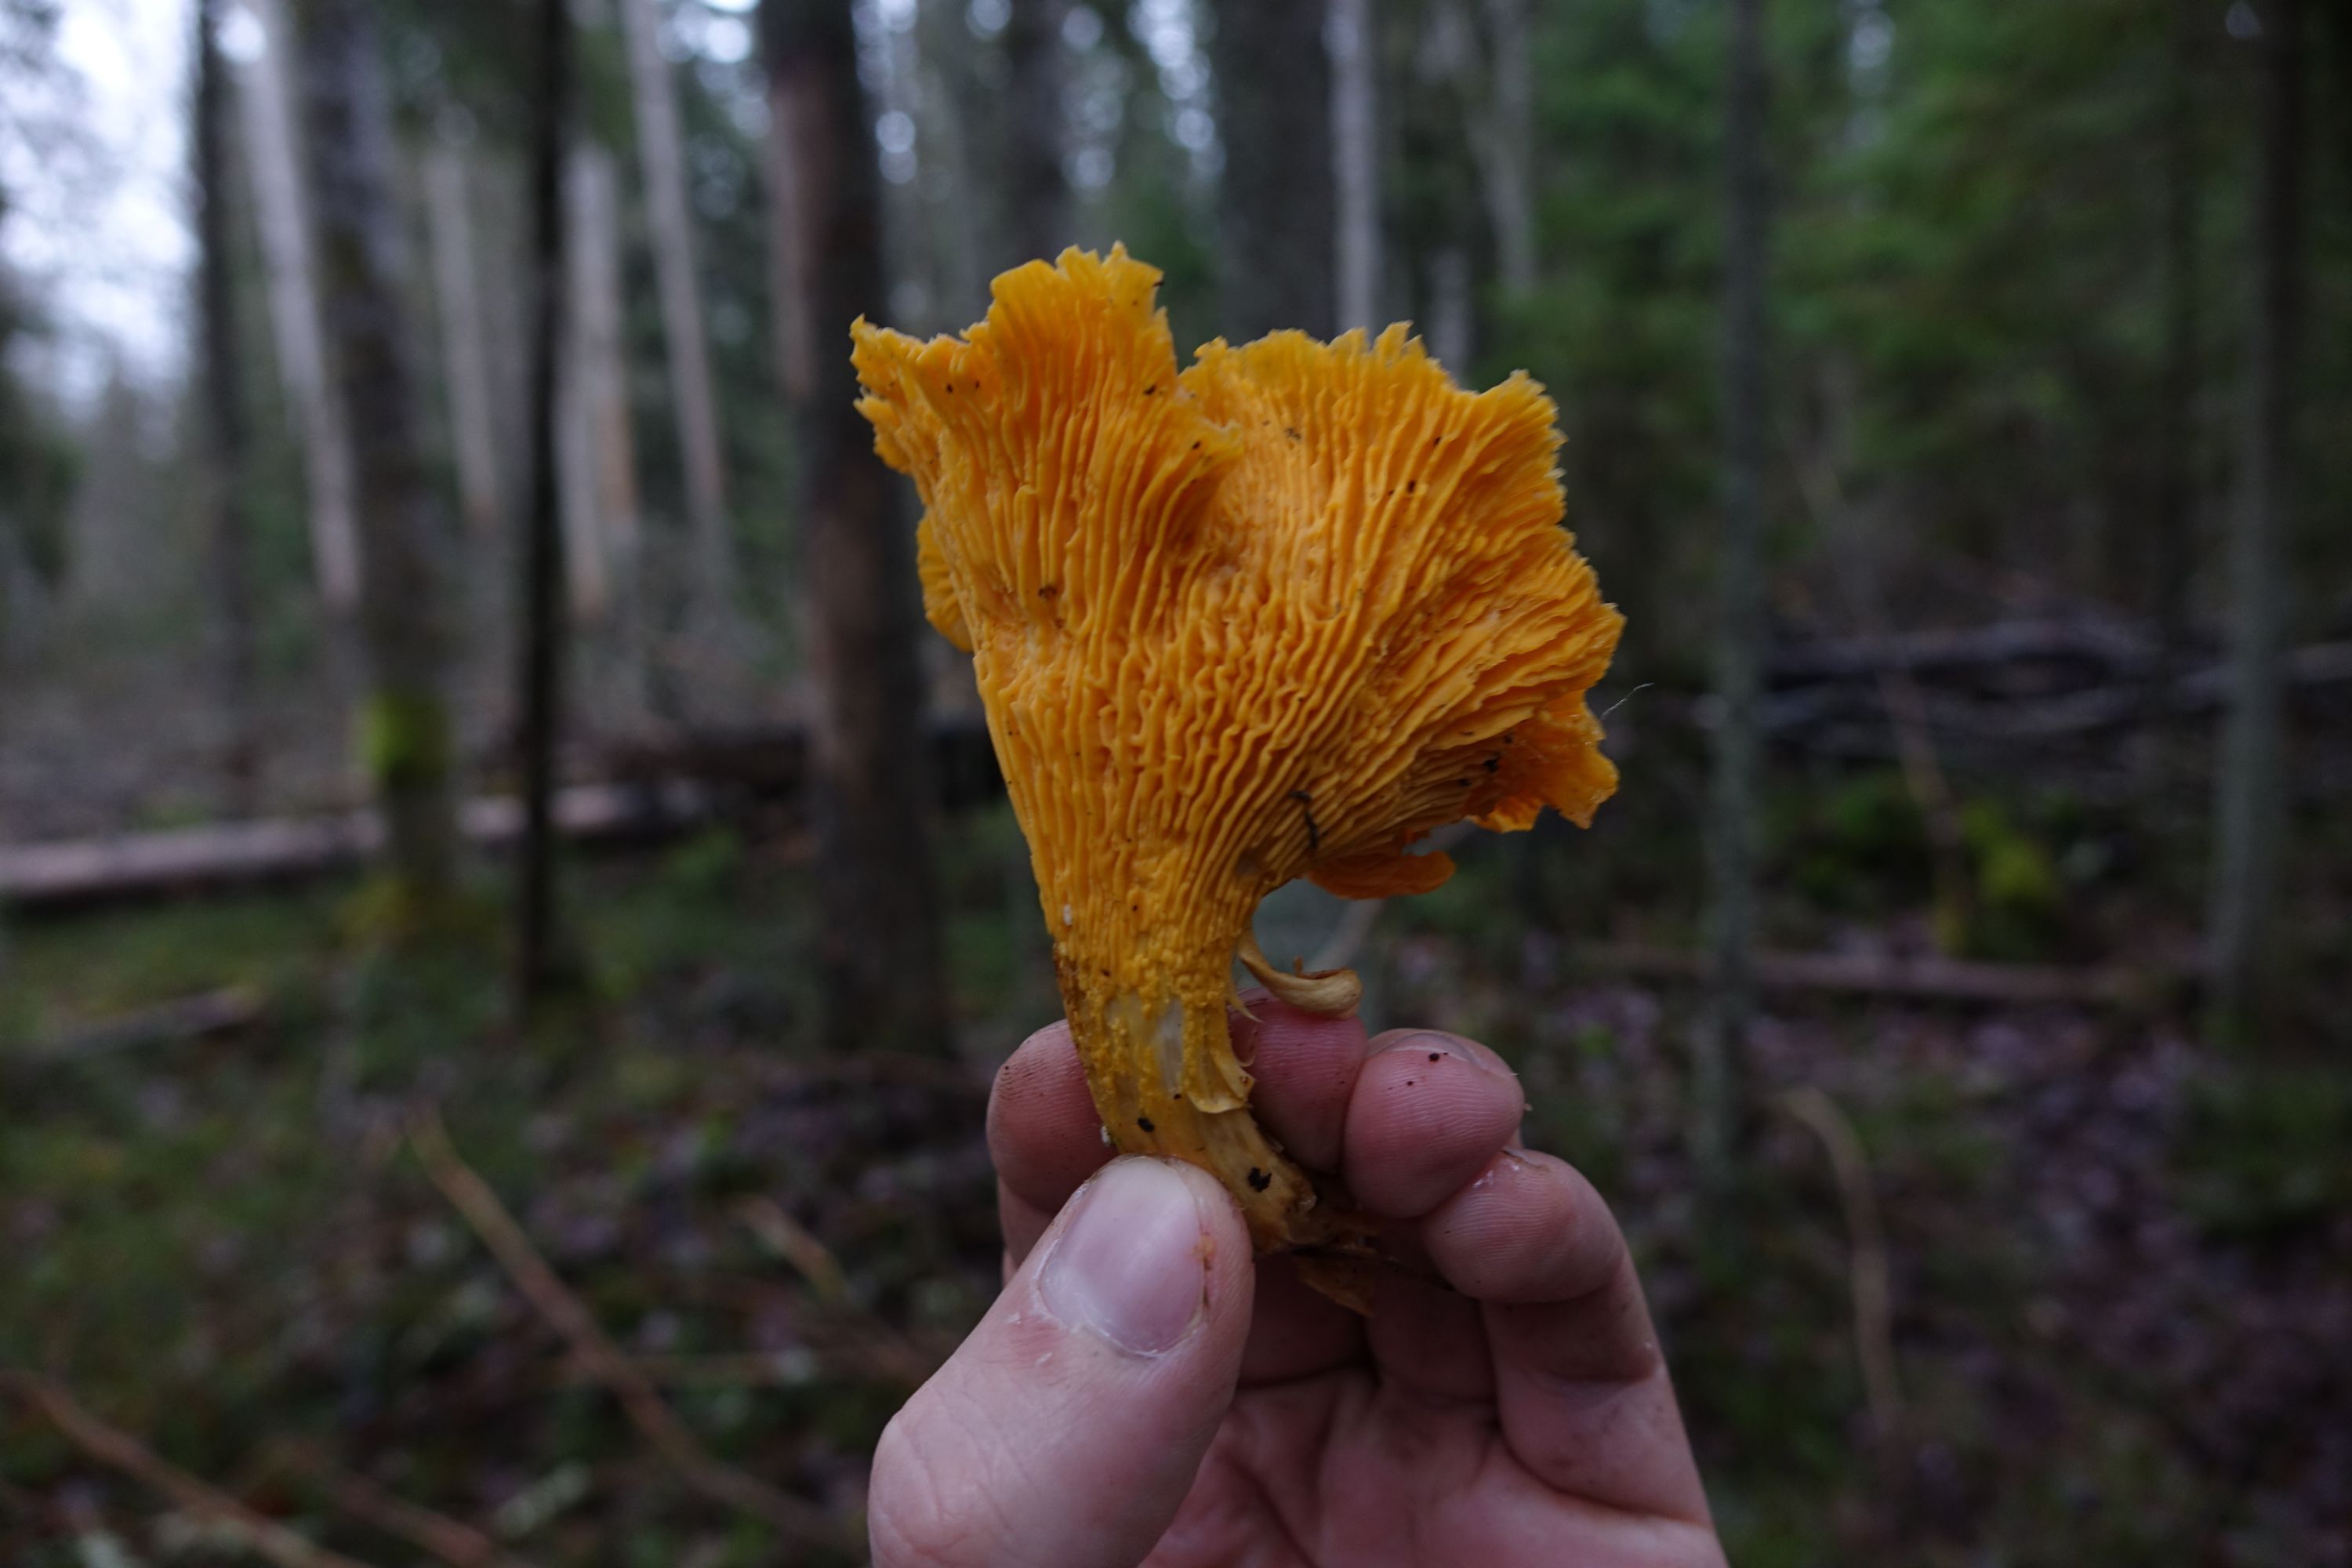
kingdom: Fungi
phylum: Basidiomycota
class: Agaricomycetes
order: Cantharellales
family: Hydnaceae
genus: Cantharellus
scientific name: Cantharellus cibarius
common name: Chanterelle
